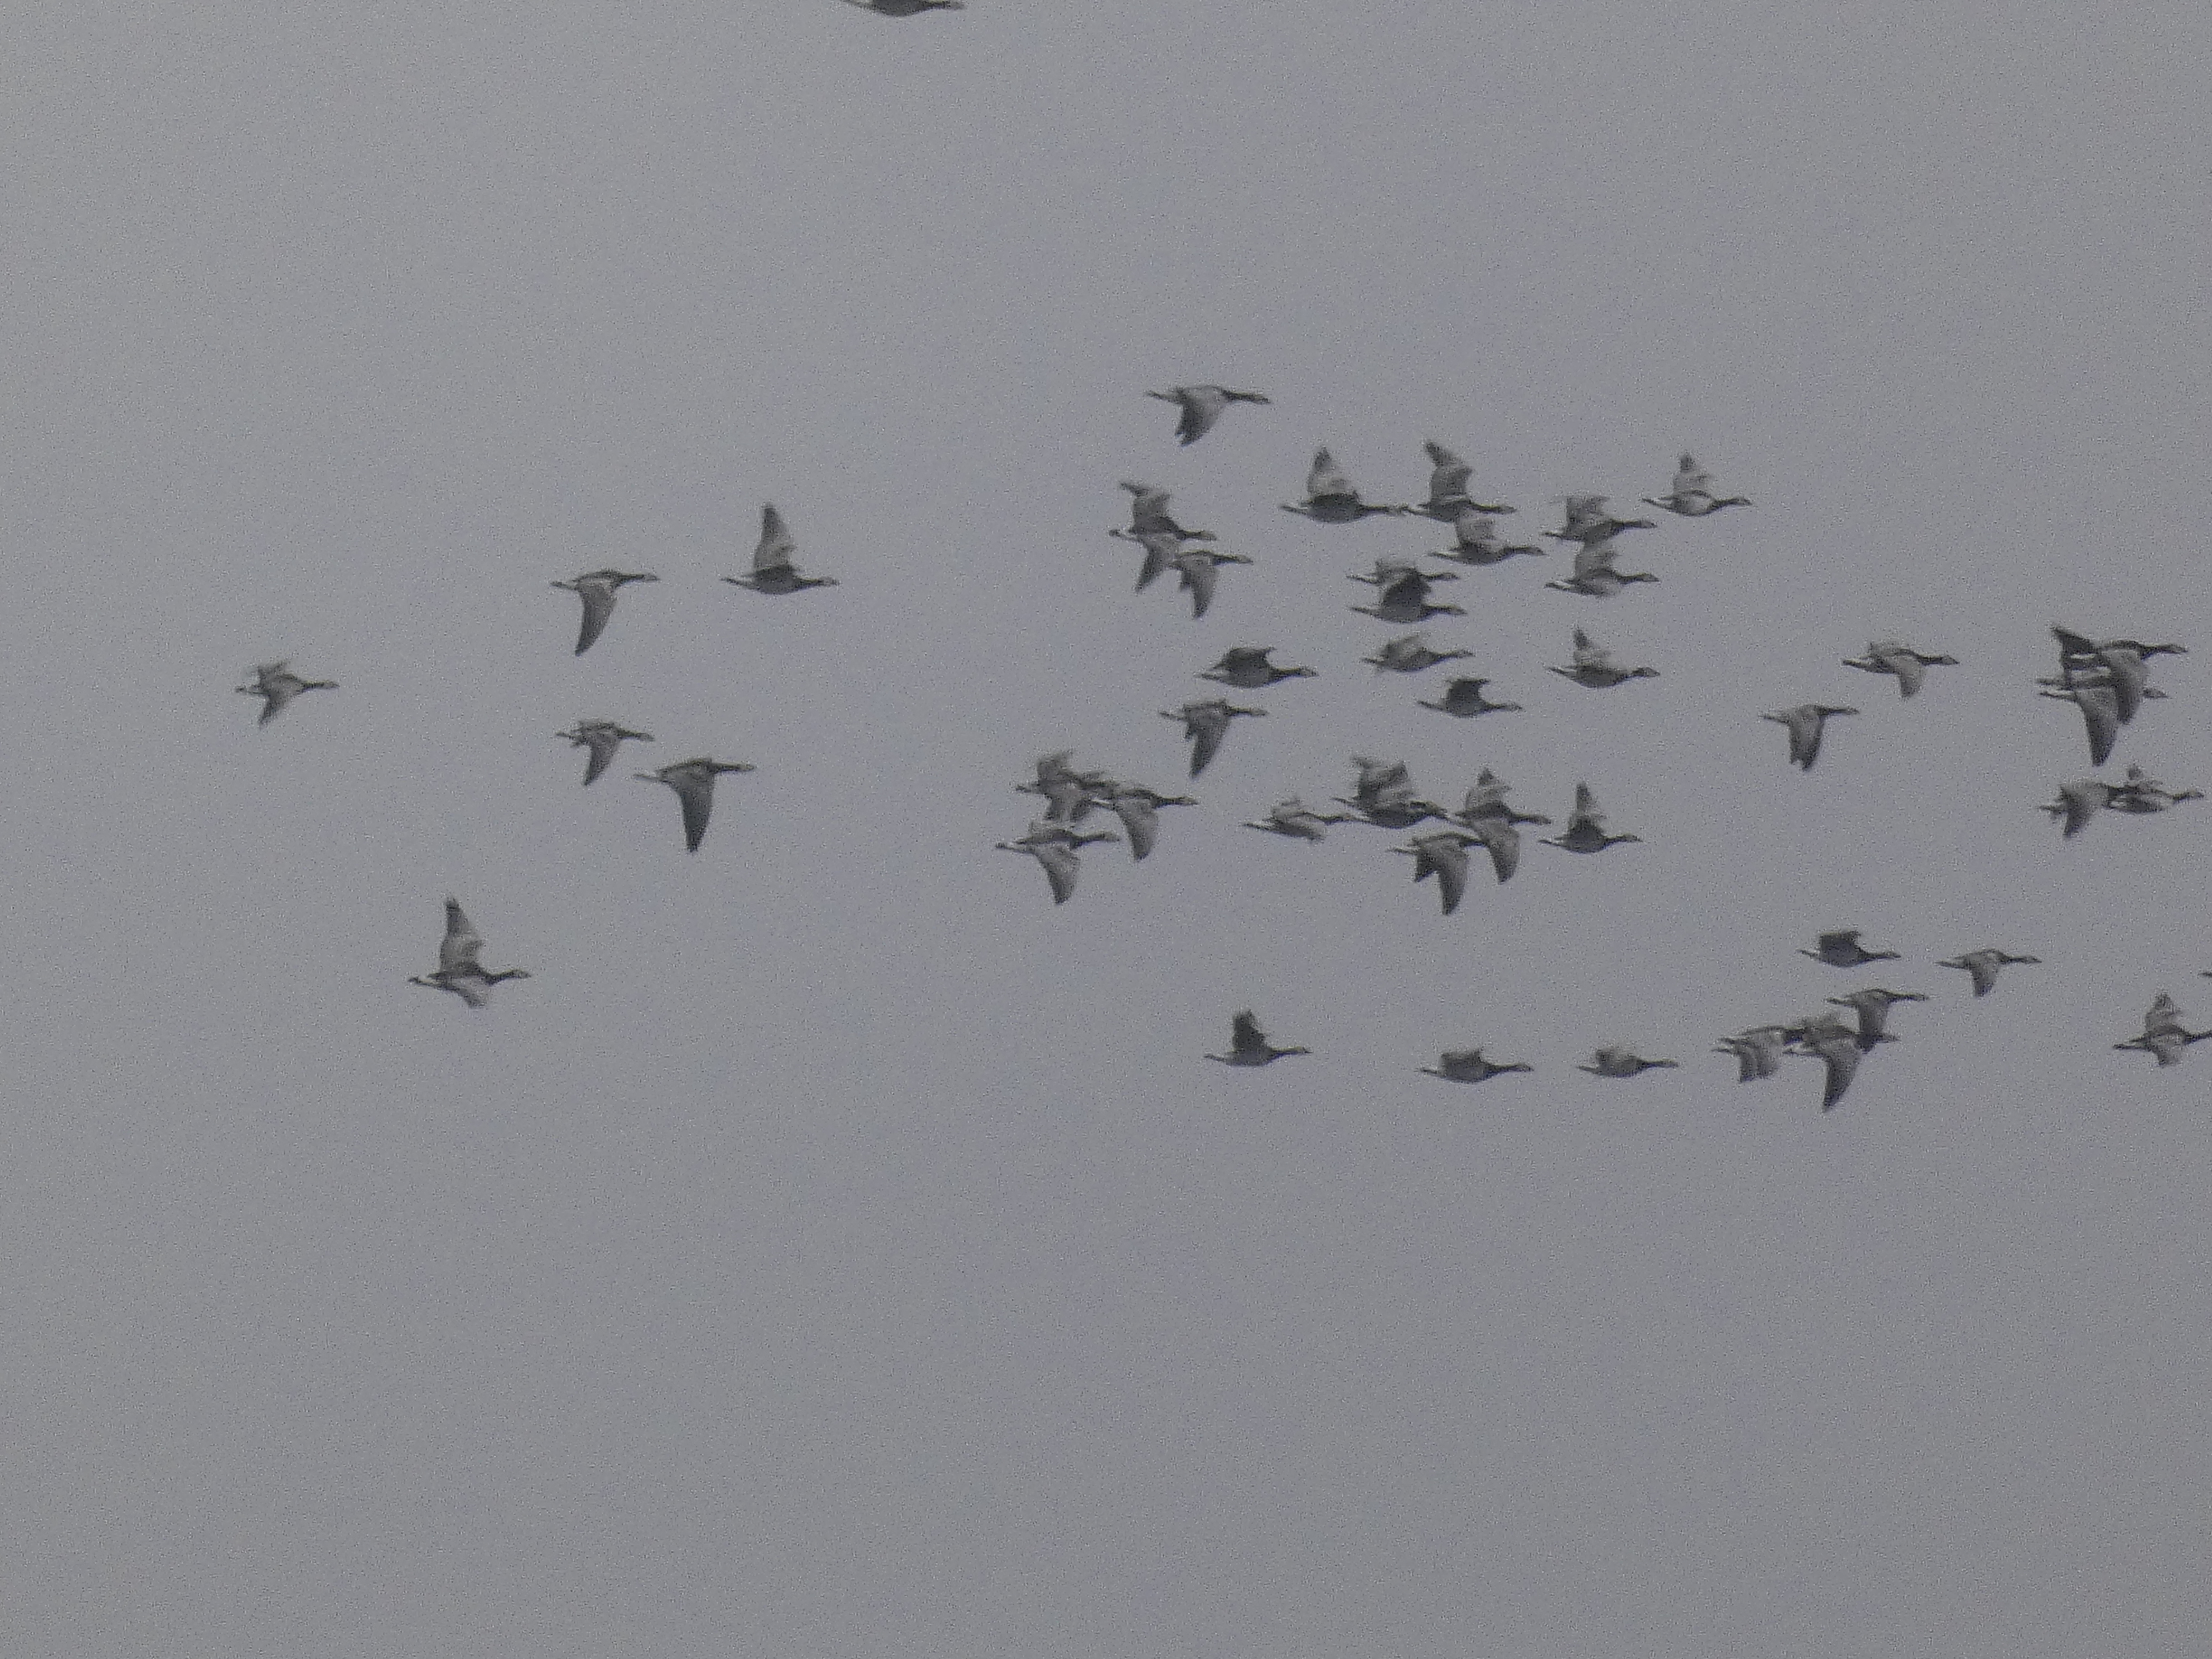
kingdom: Animalia
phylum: Chordata
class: Aves
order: Anseriformes
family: Anatidae
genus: Branta
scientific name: Branta leucopsis
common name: Bramgås
